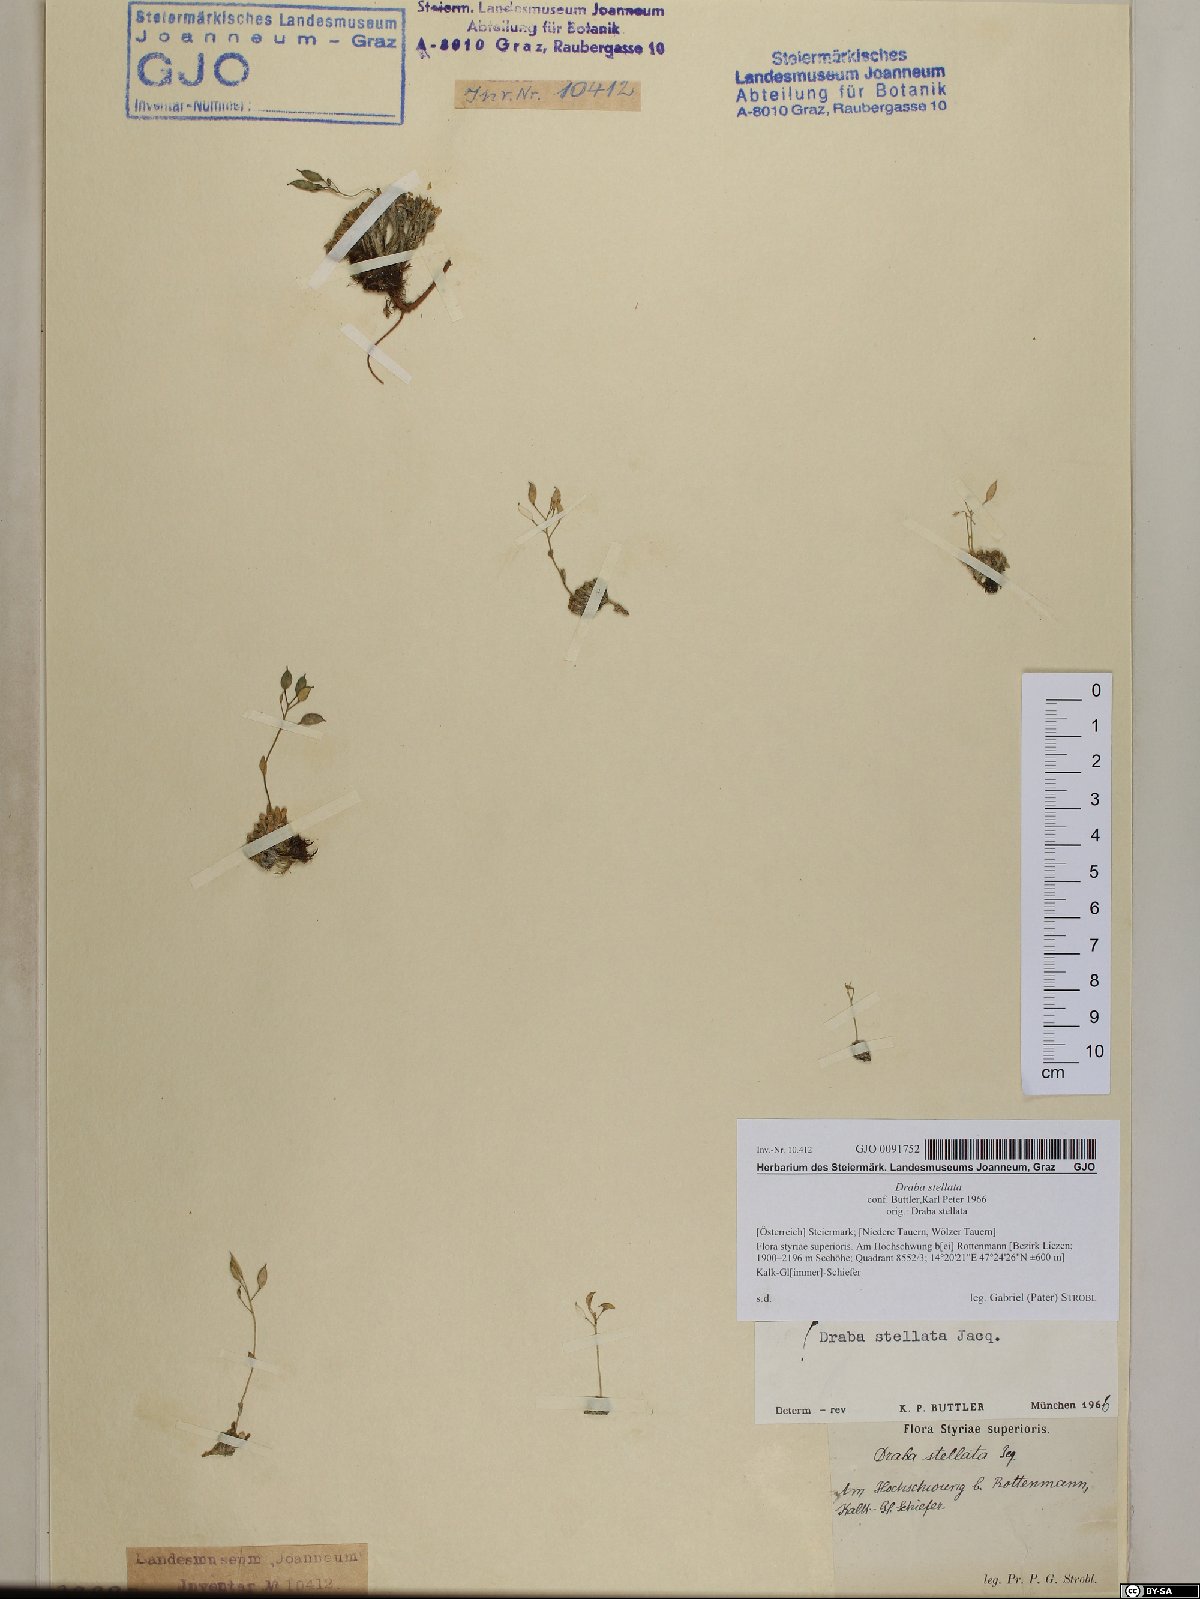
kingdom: Plantae
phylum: Tracheophyta
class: Magnoliopsida
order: Brassicales
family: Brassicaceae
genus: Draba
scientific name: Draba stellata
